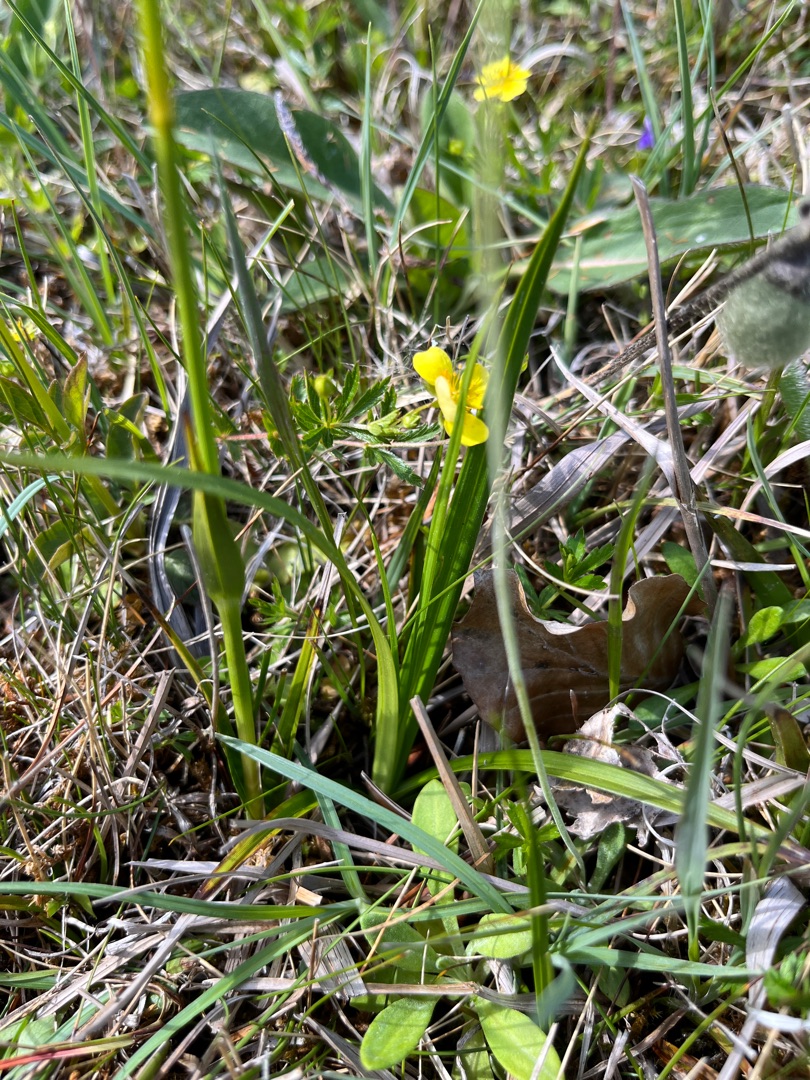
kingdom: Plantae
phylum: Tracheophyta
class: Liliopsida
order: Poales
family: Cyperaceae
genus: Eriophorum
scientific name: Eriophorum latifolium
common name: Bredbladet kæruld
